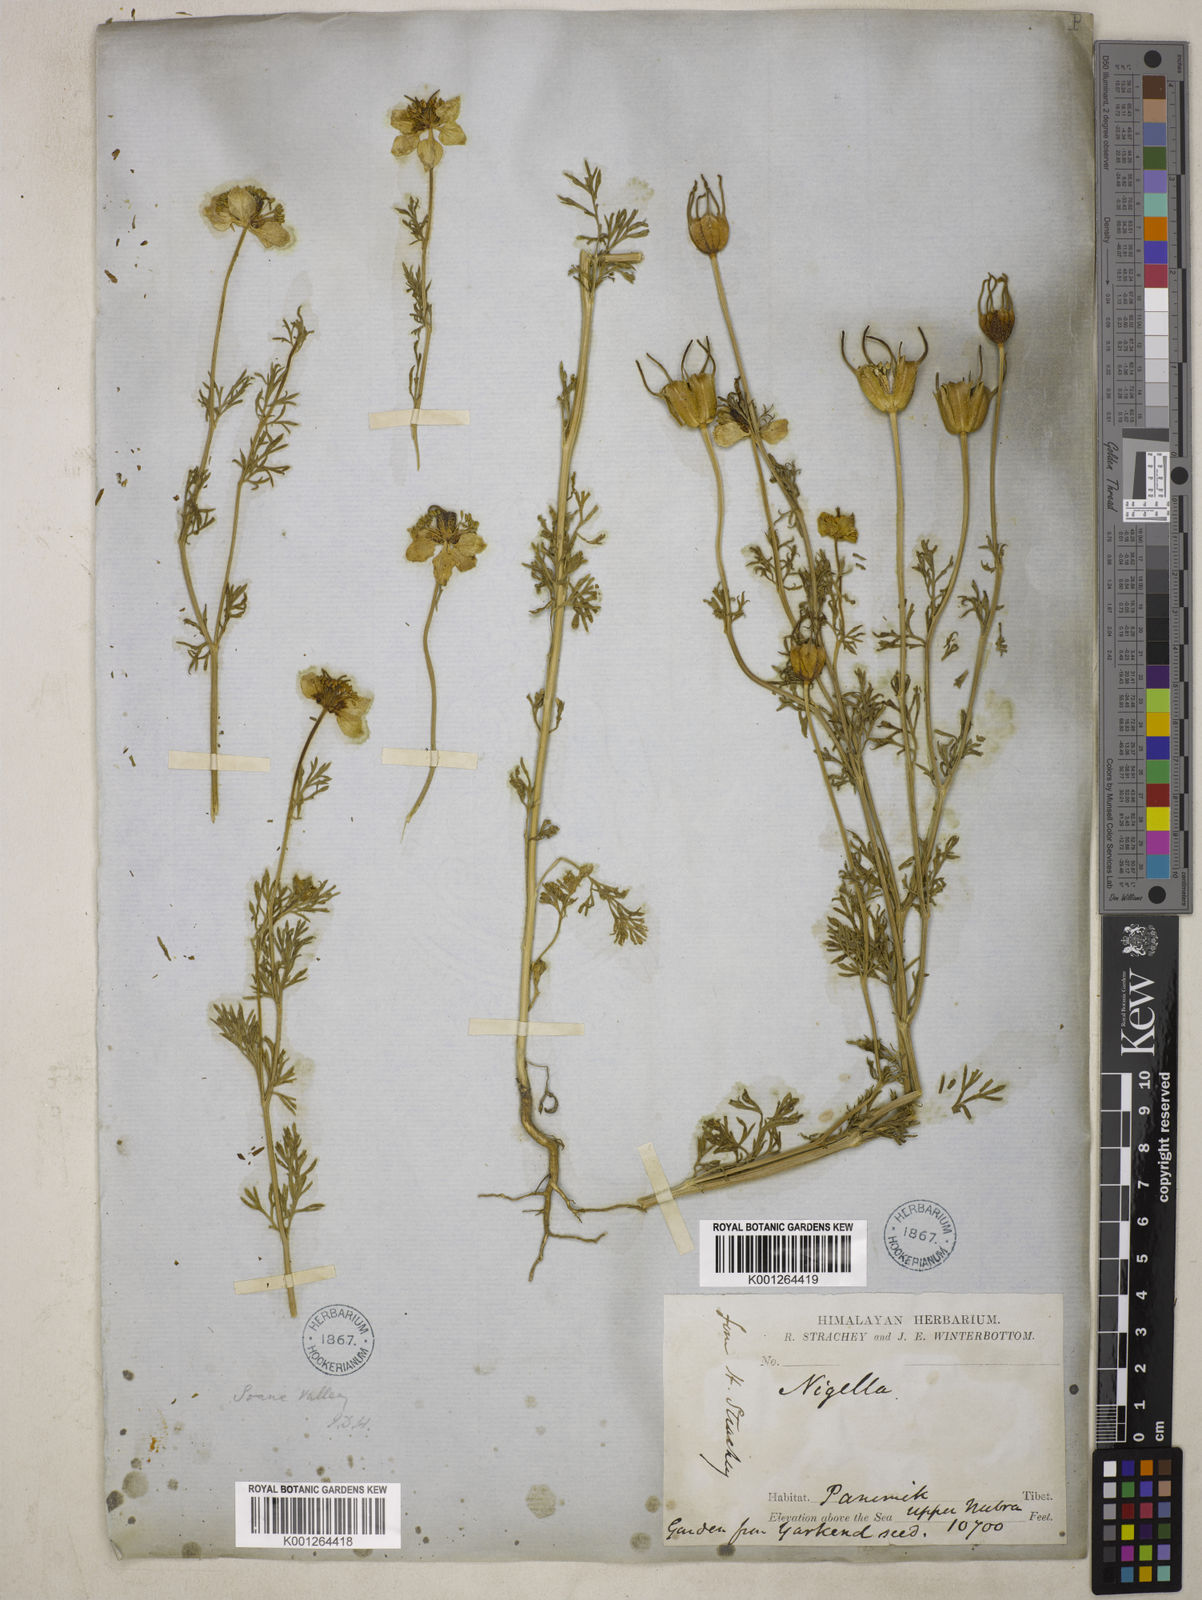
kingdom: Plantae
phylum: Tracheophyta
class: Magnoliopsida
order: Ranunculales
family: Ranunculaceae
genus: Nigella
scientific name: Nigella sativa
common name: Black-cumin
